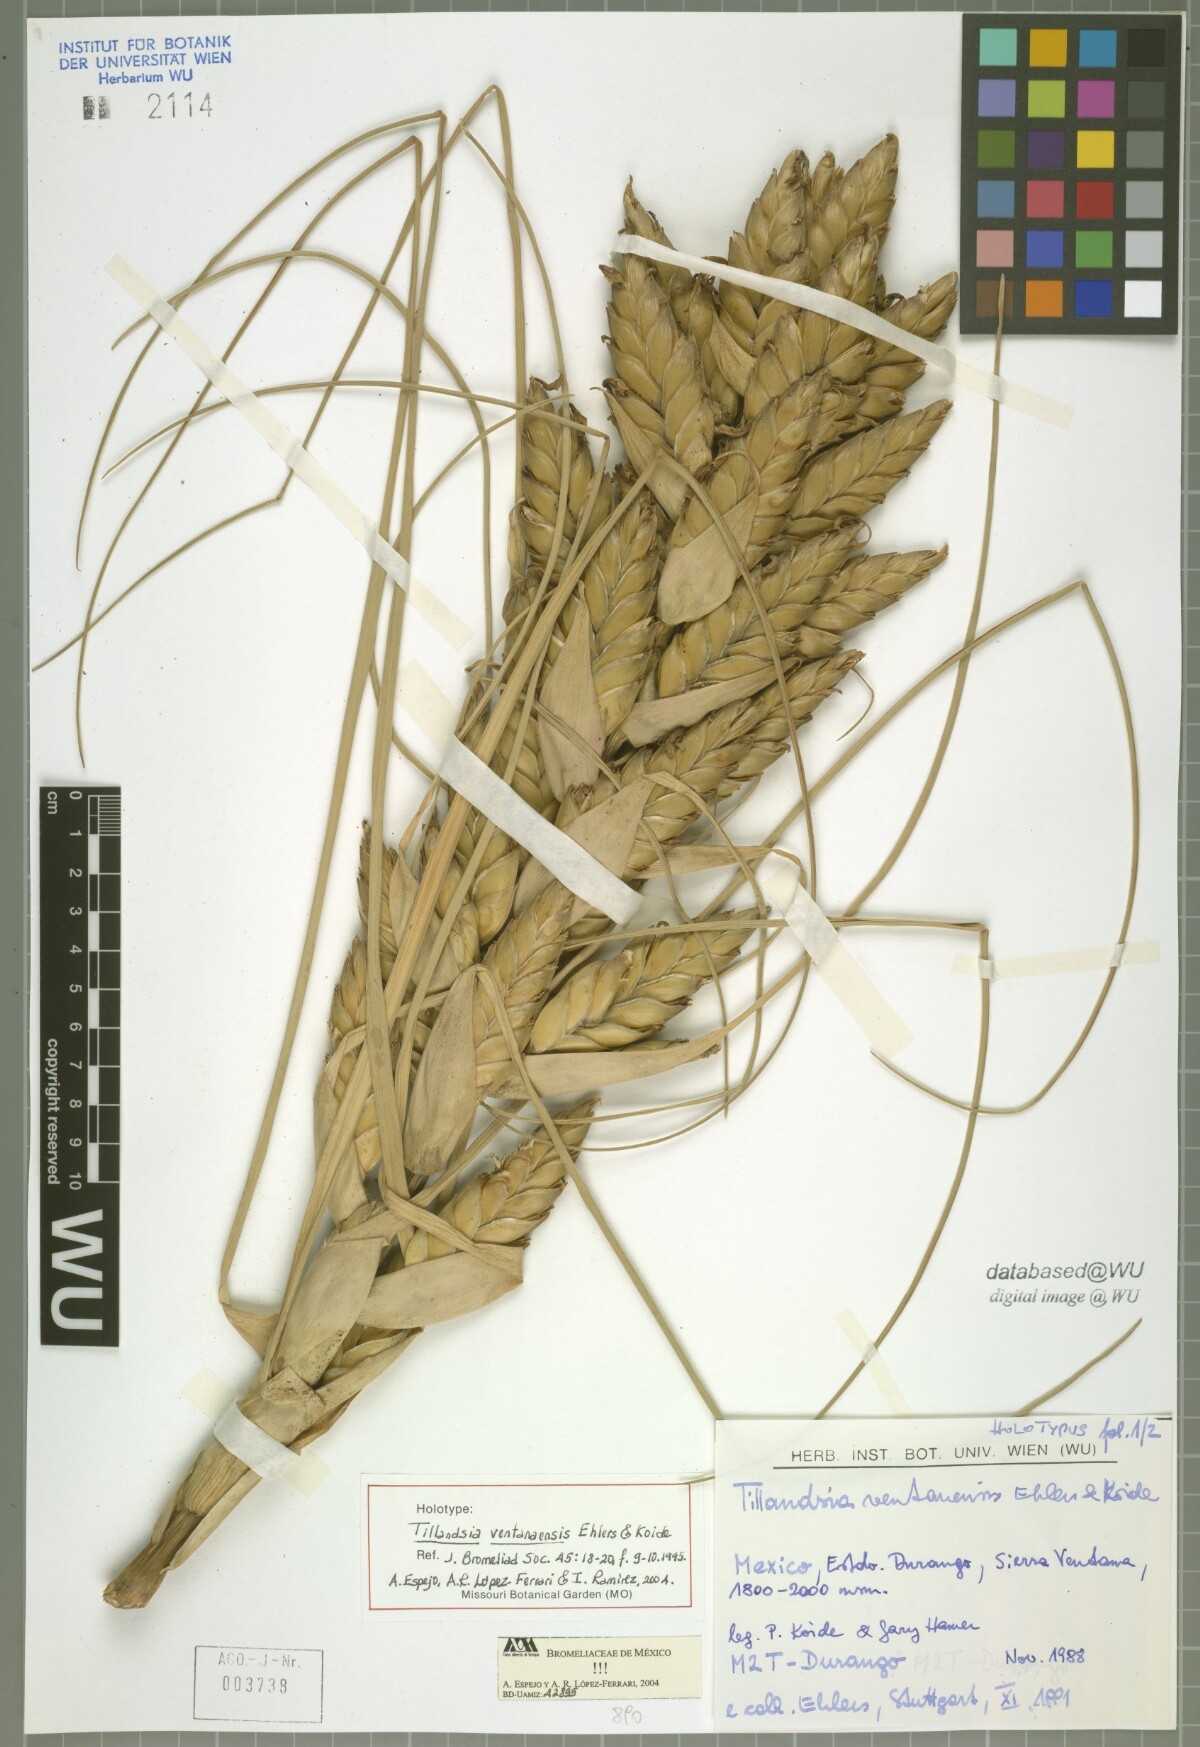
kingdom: Plantae
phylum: Tracheophyta
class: Liliopsida
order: Poales
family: Bromeliaceae
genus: Tillandsia
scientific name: Tillandsia ventanaensis
